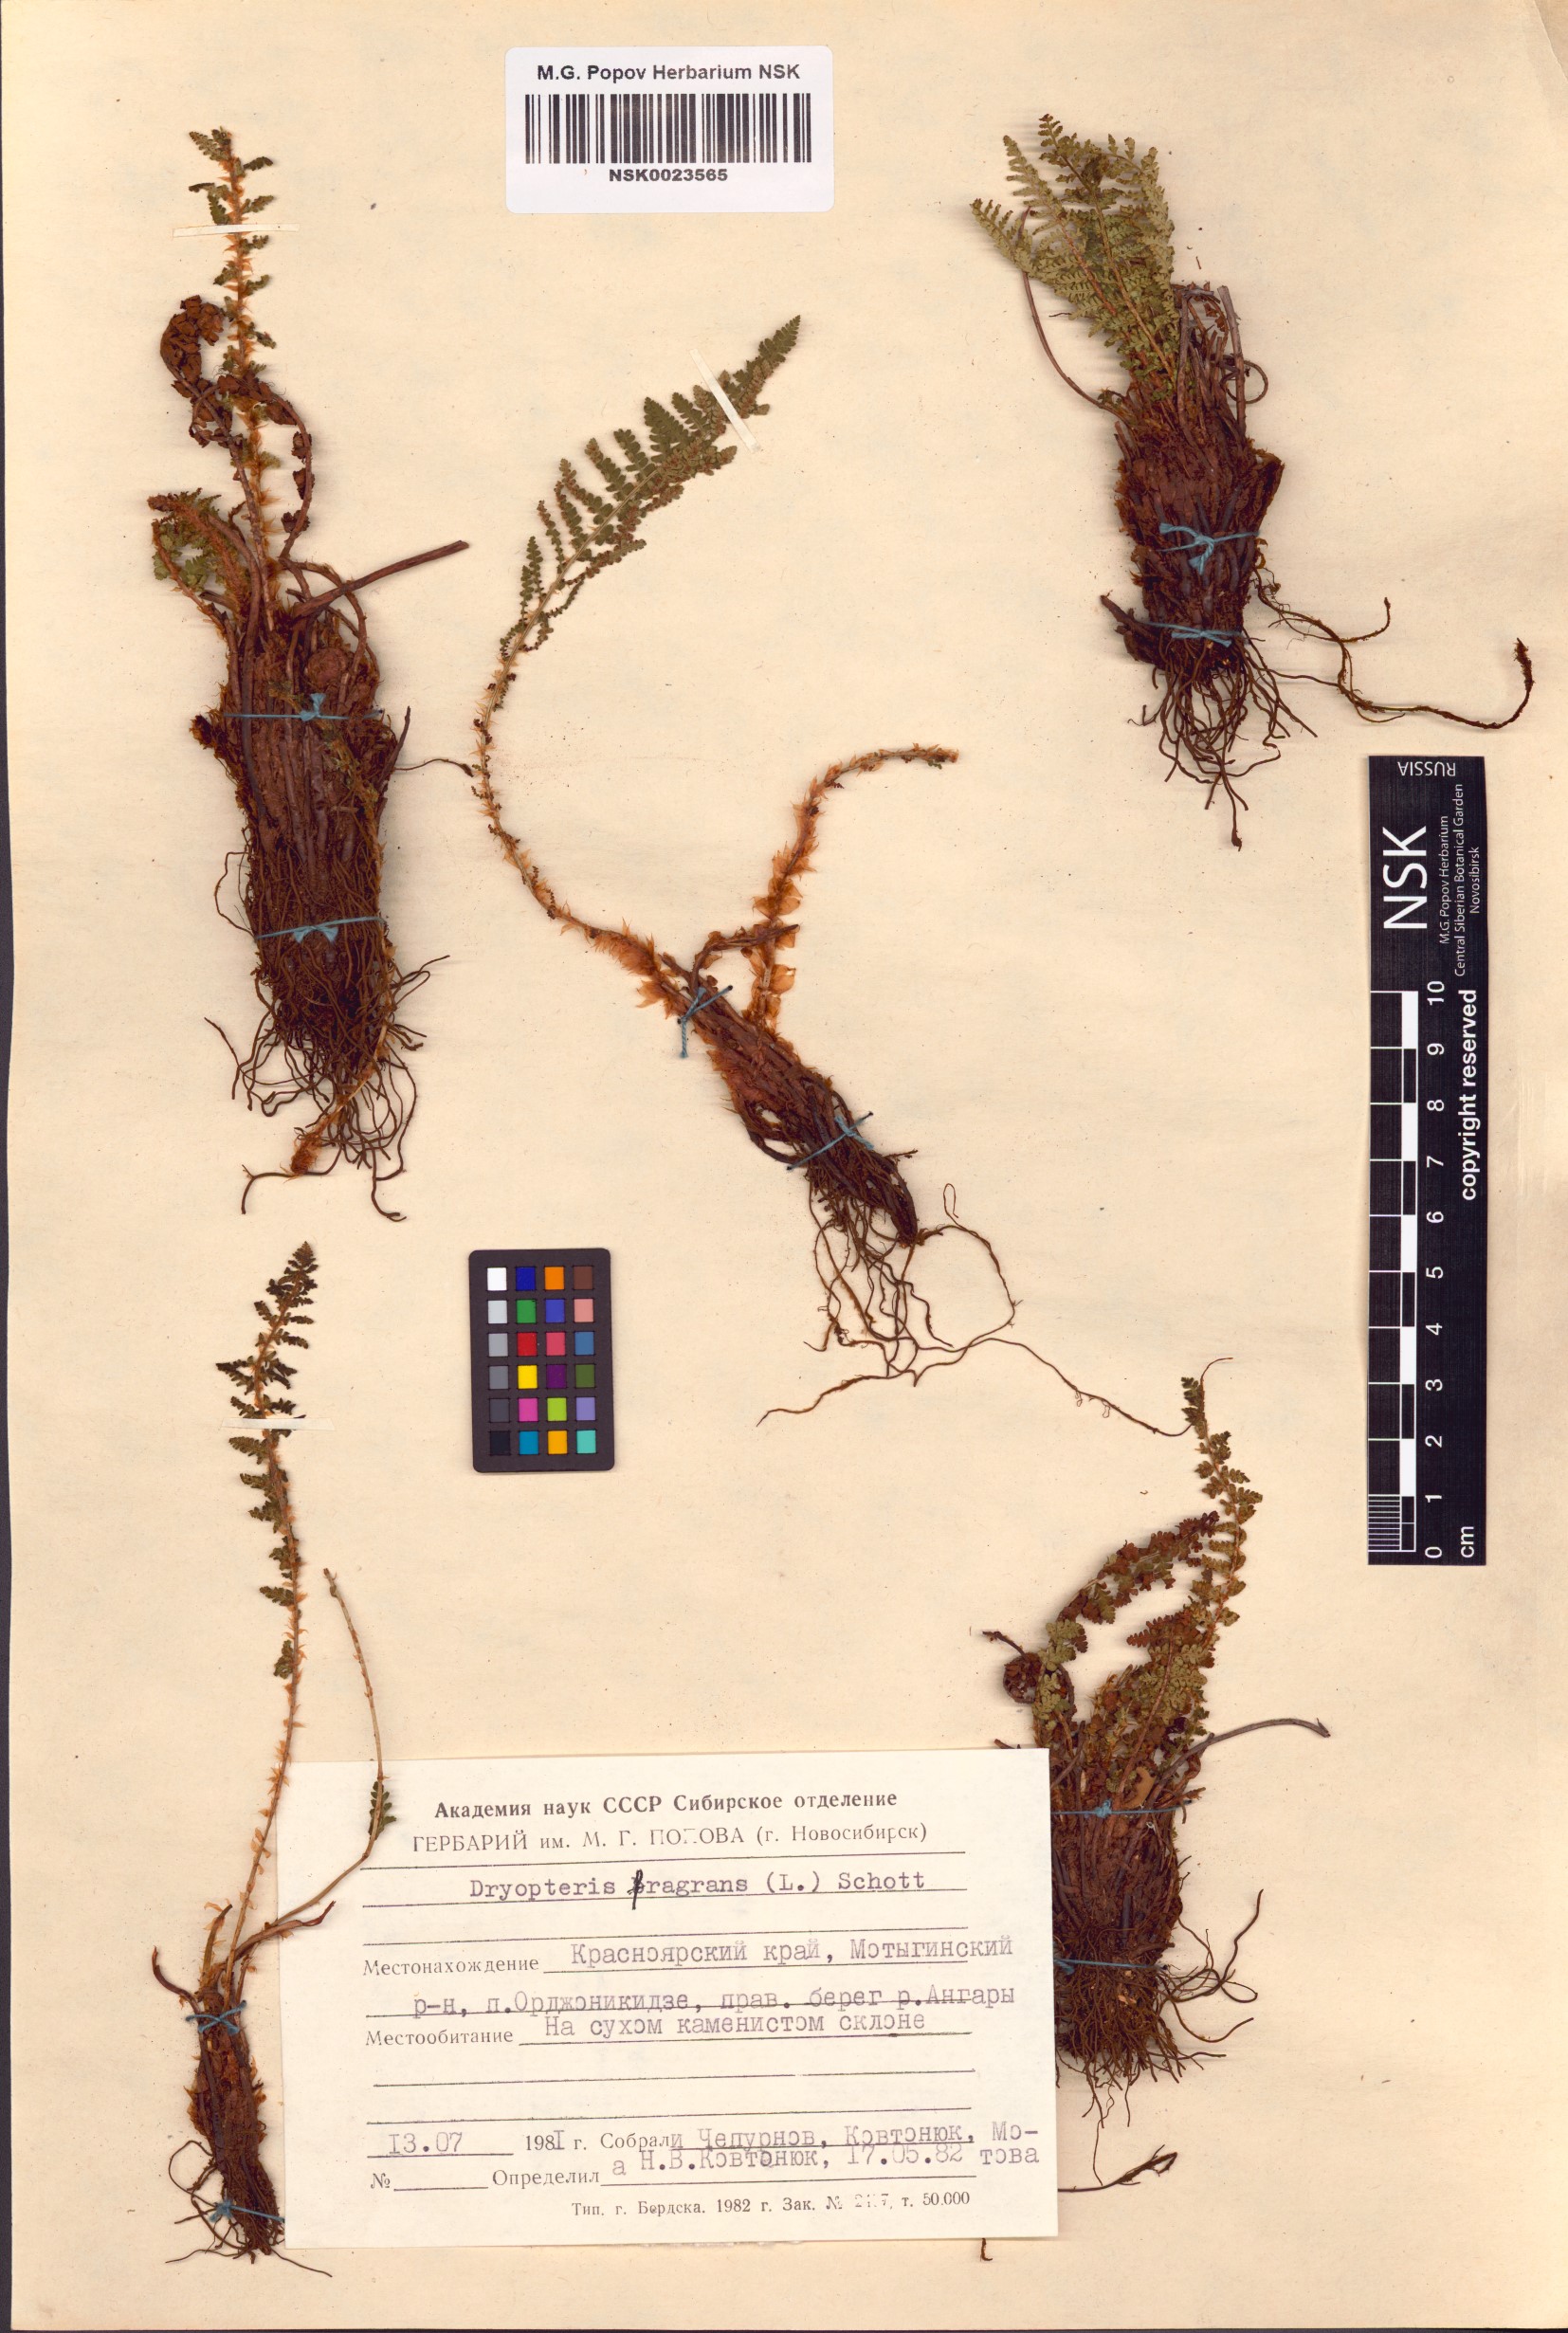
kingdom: Plantae
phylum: Tracheophyta
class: Polypodiopsida
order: Polypodiales
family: Dryopteridaceae
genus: Dryopteris
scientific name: Dryopteris fragrans
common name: Fragrant wood fern
